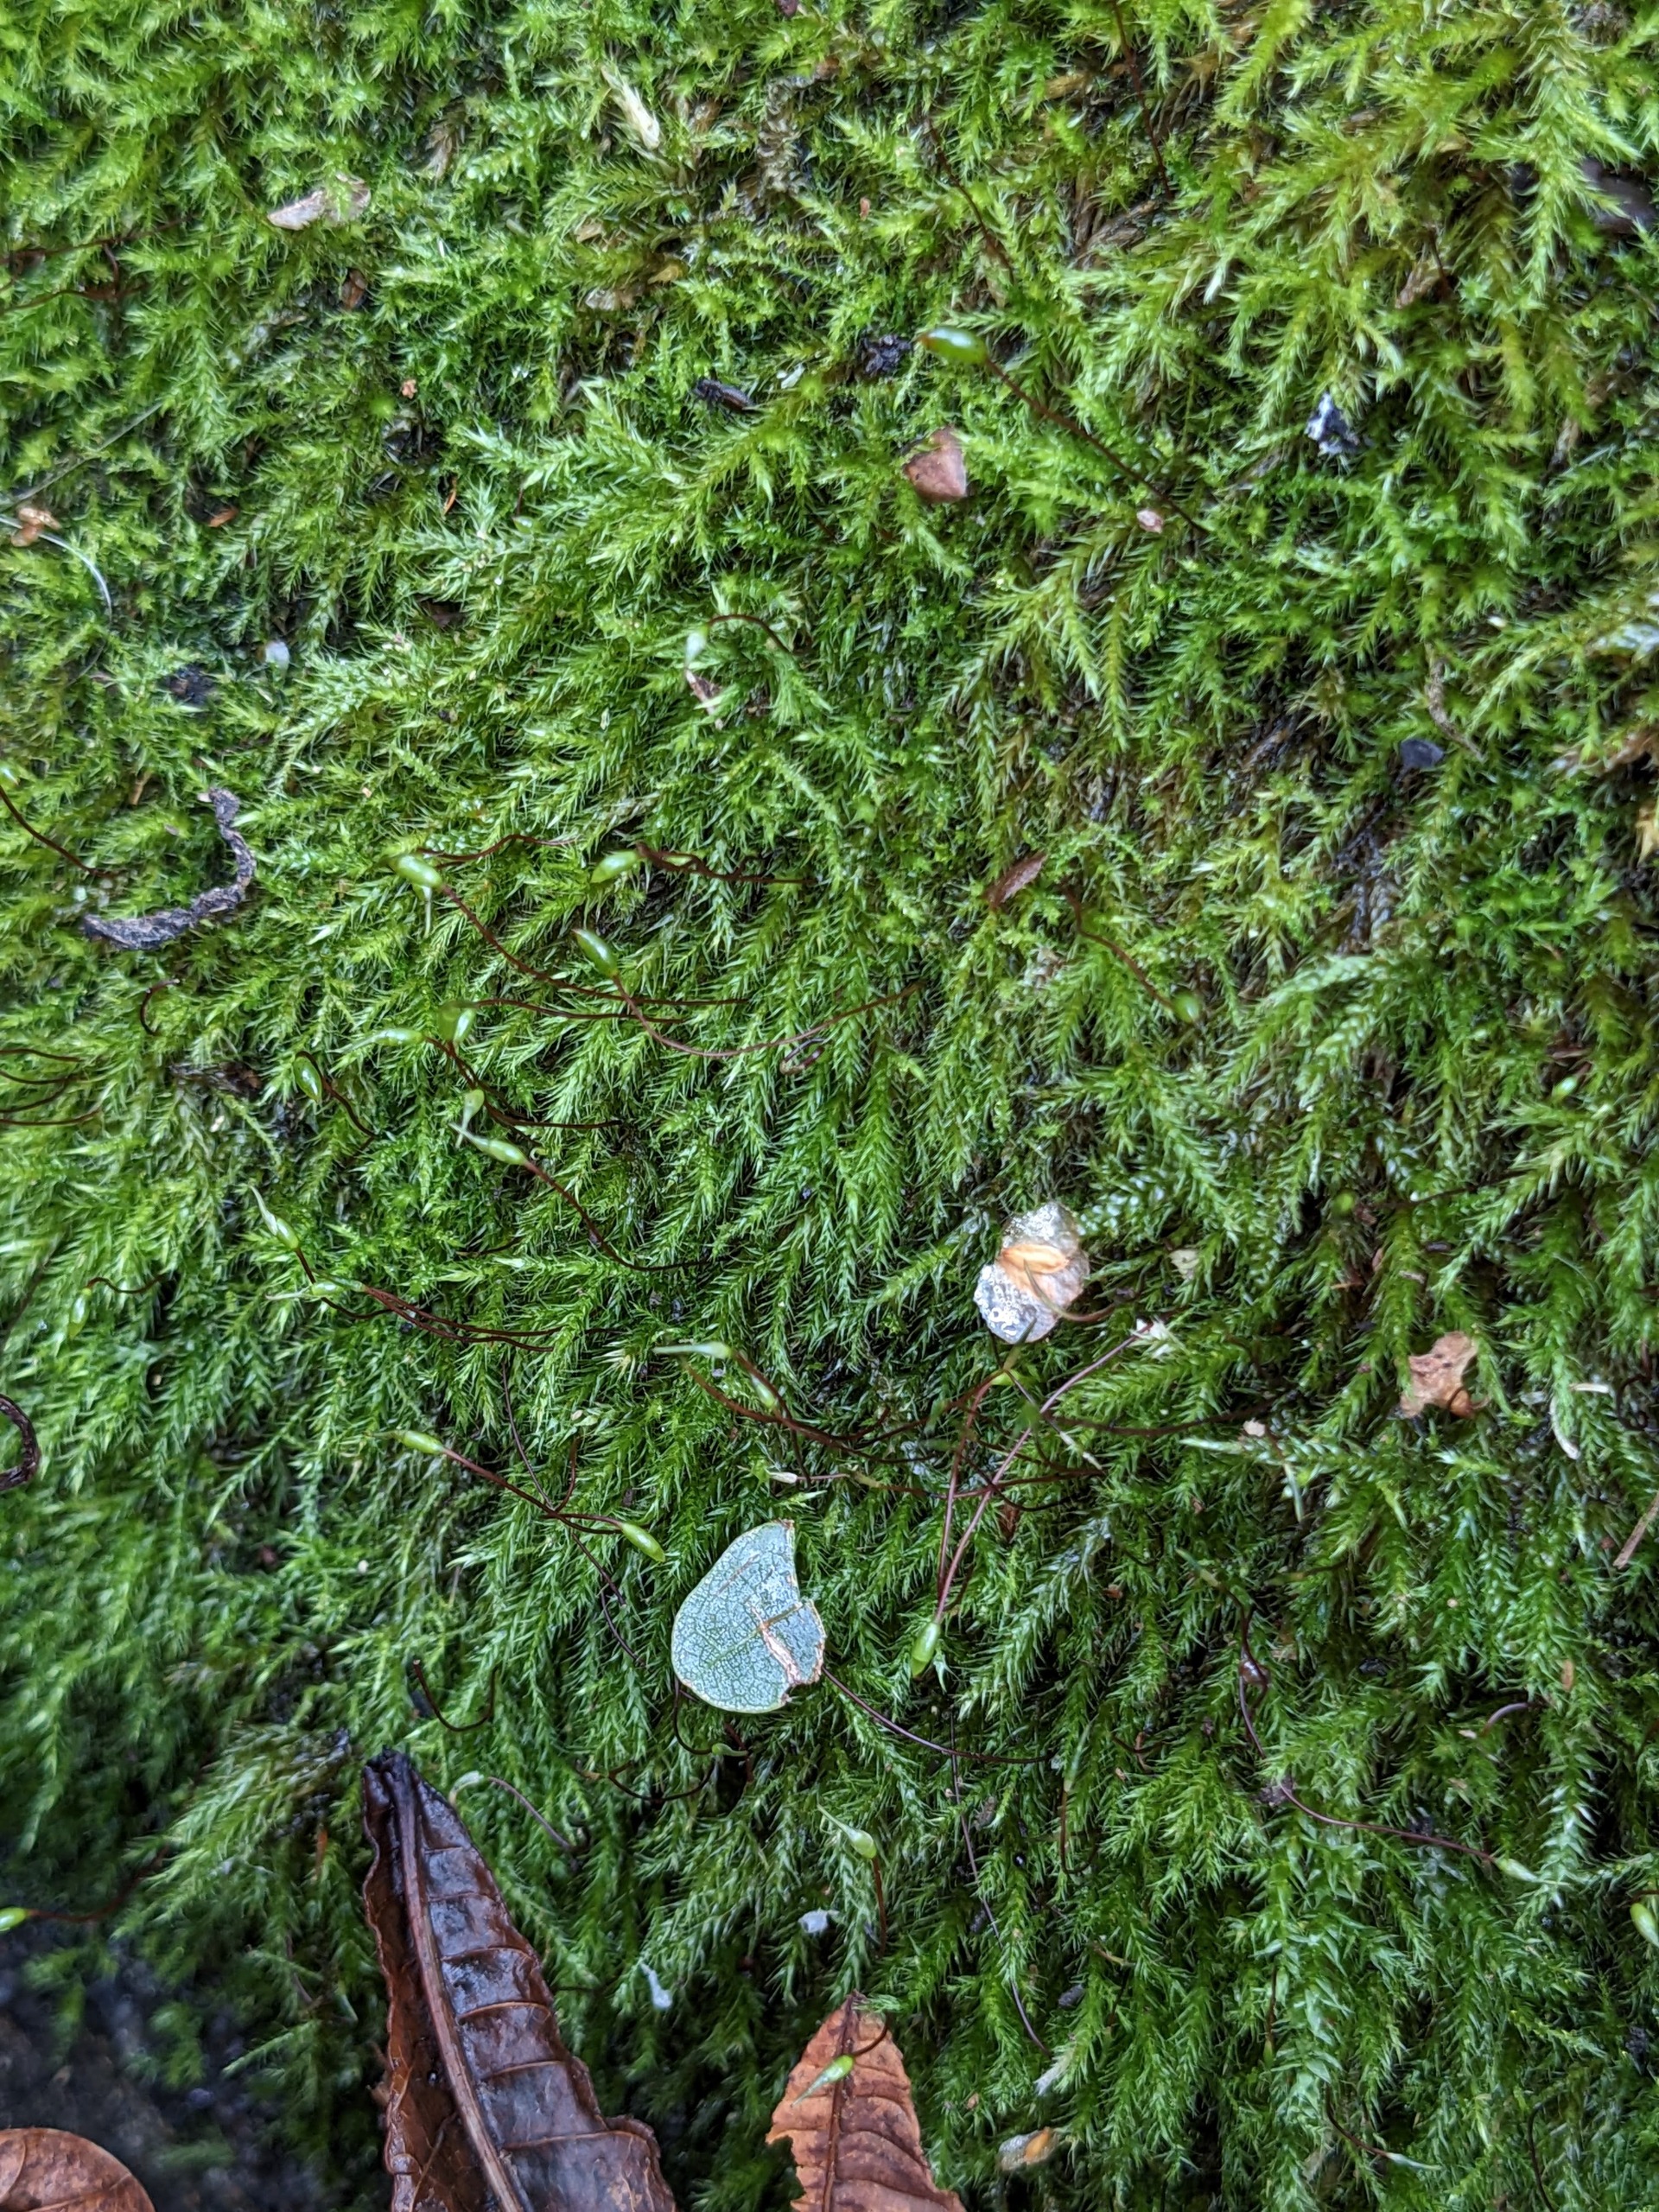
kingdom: Plantae
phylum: Bryophyta
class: Bryopsida
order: Hypnales
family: Brachytheciaceae
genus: Sciuro-hypnum
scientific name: Sciuro-hypnum populeum
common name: Park-kortkapsel
